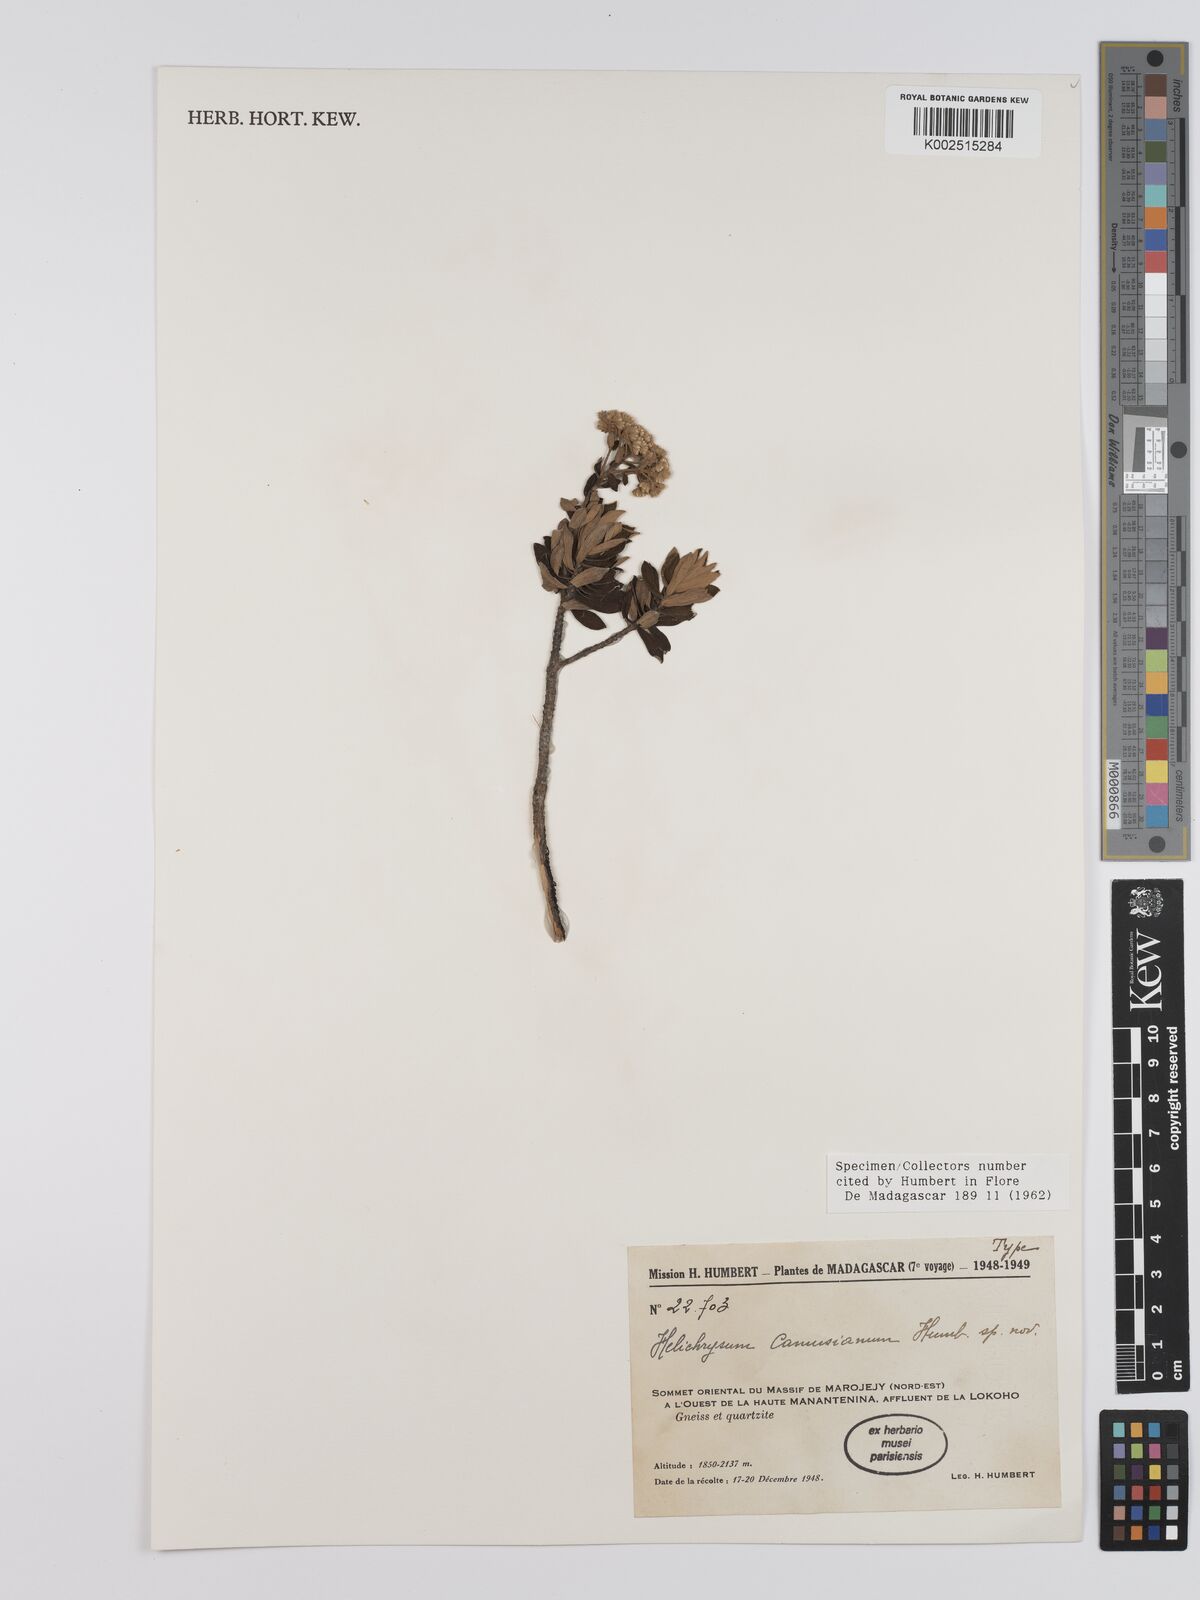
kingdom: Plantae
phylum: Tracheophyta
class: Magnoliopsida
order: Asterales
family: Asteraceae
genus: Helichrysum
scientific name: Helichrysum camusianum
